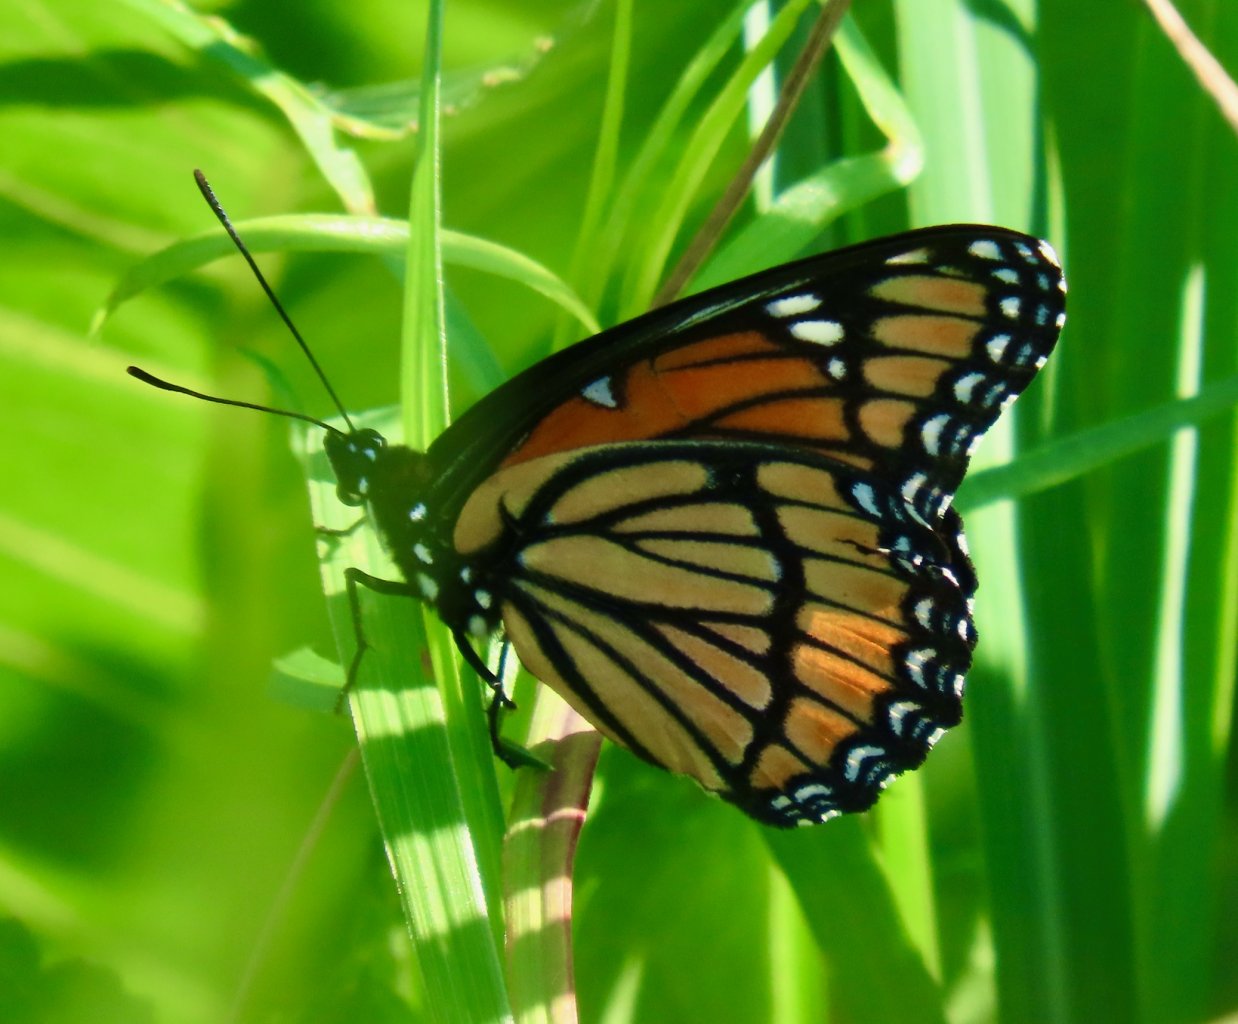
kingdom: Animalia
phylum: Arthropoda
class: Insecta
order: Lepidoptera
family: Nymphalidae
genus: Limenitis
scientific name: Limenitis archippus
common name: Viceroy
